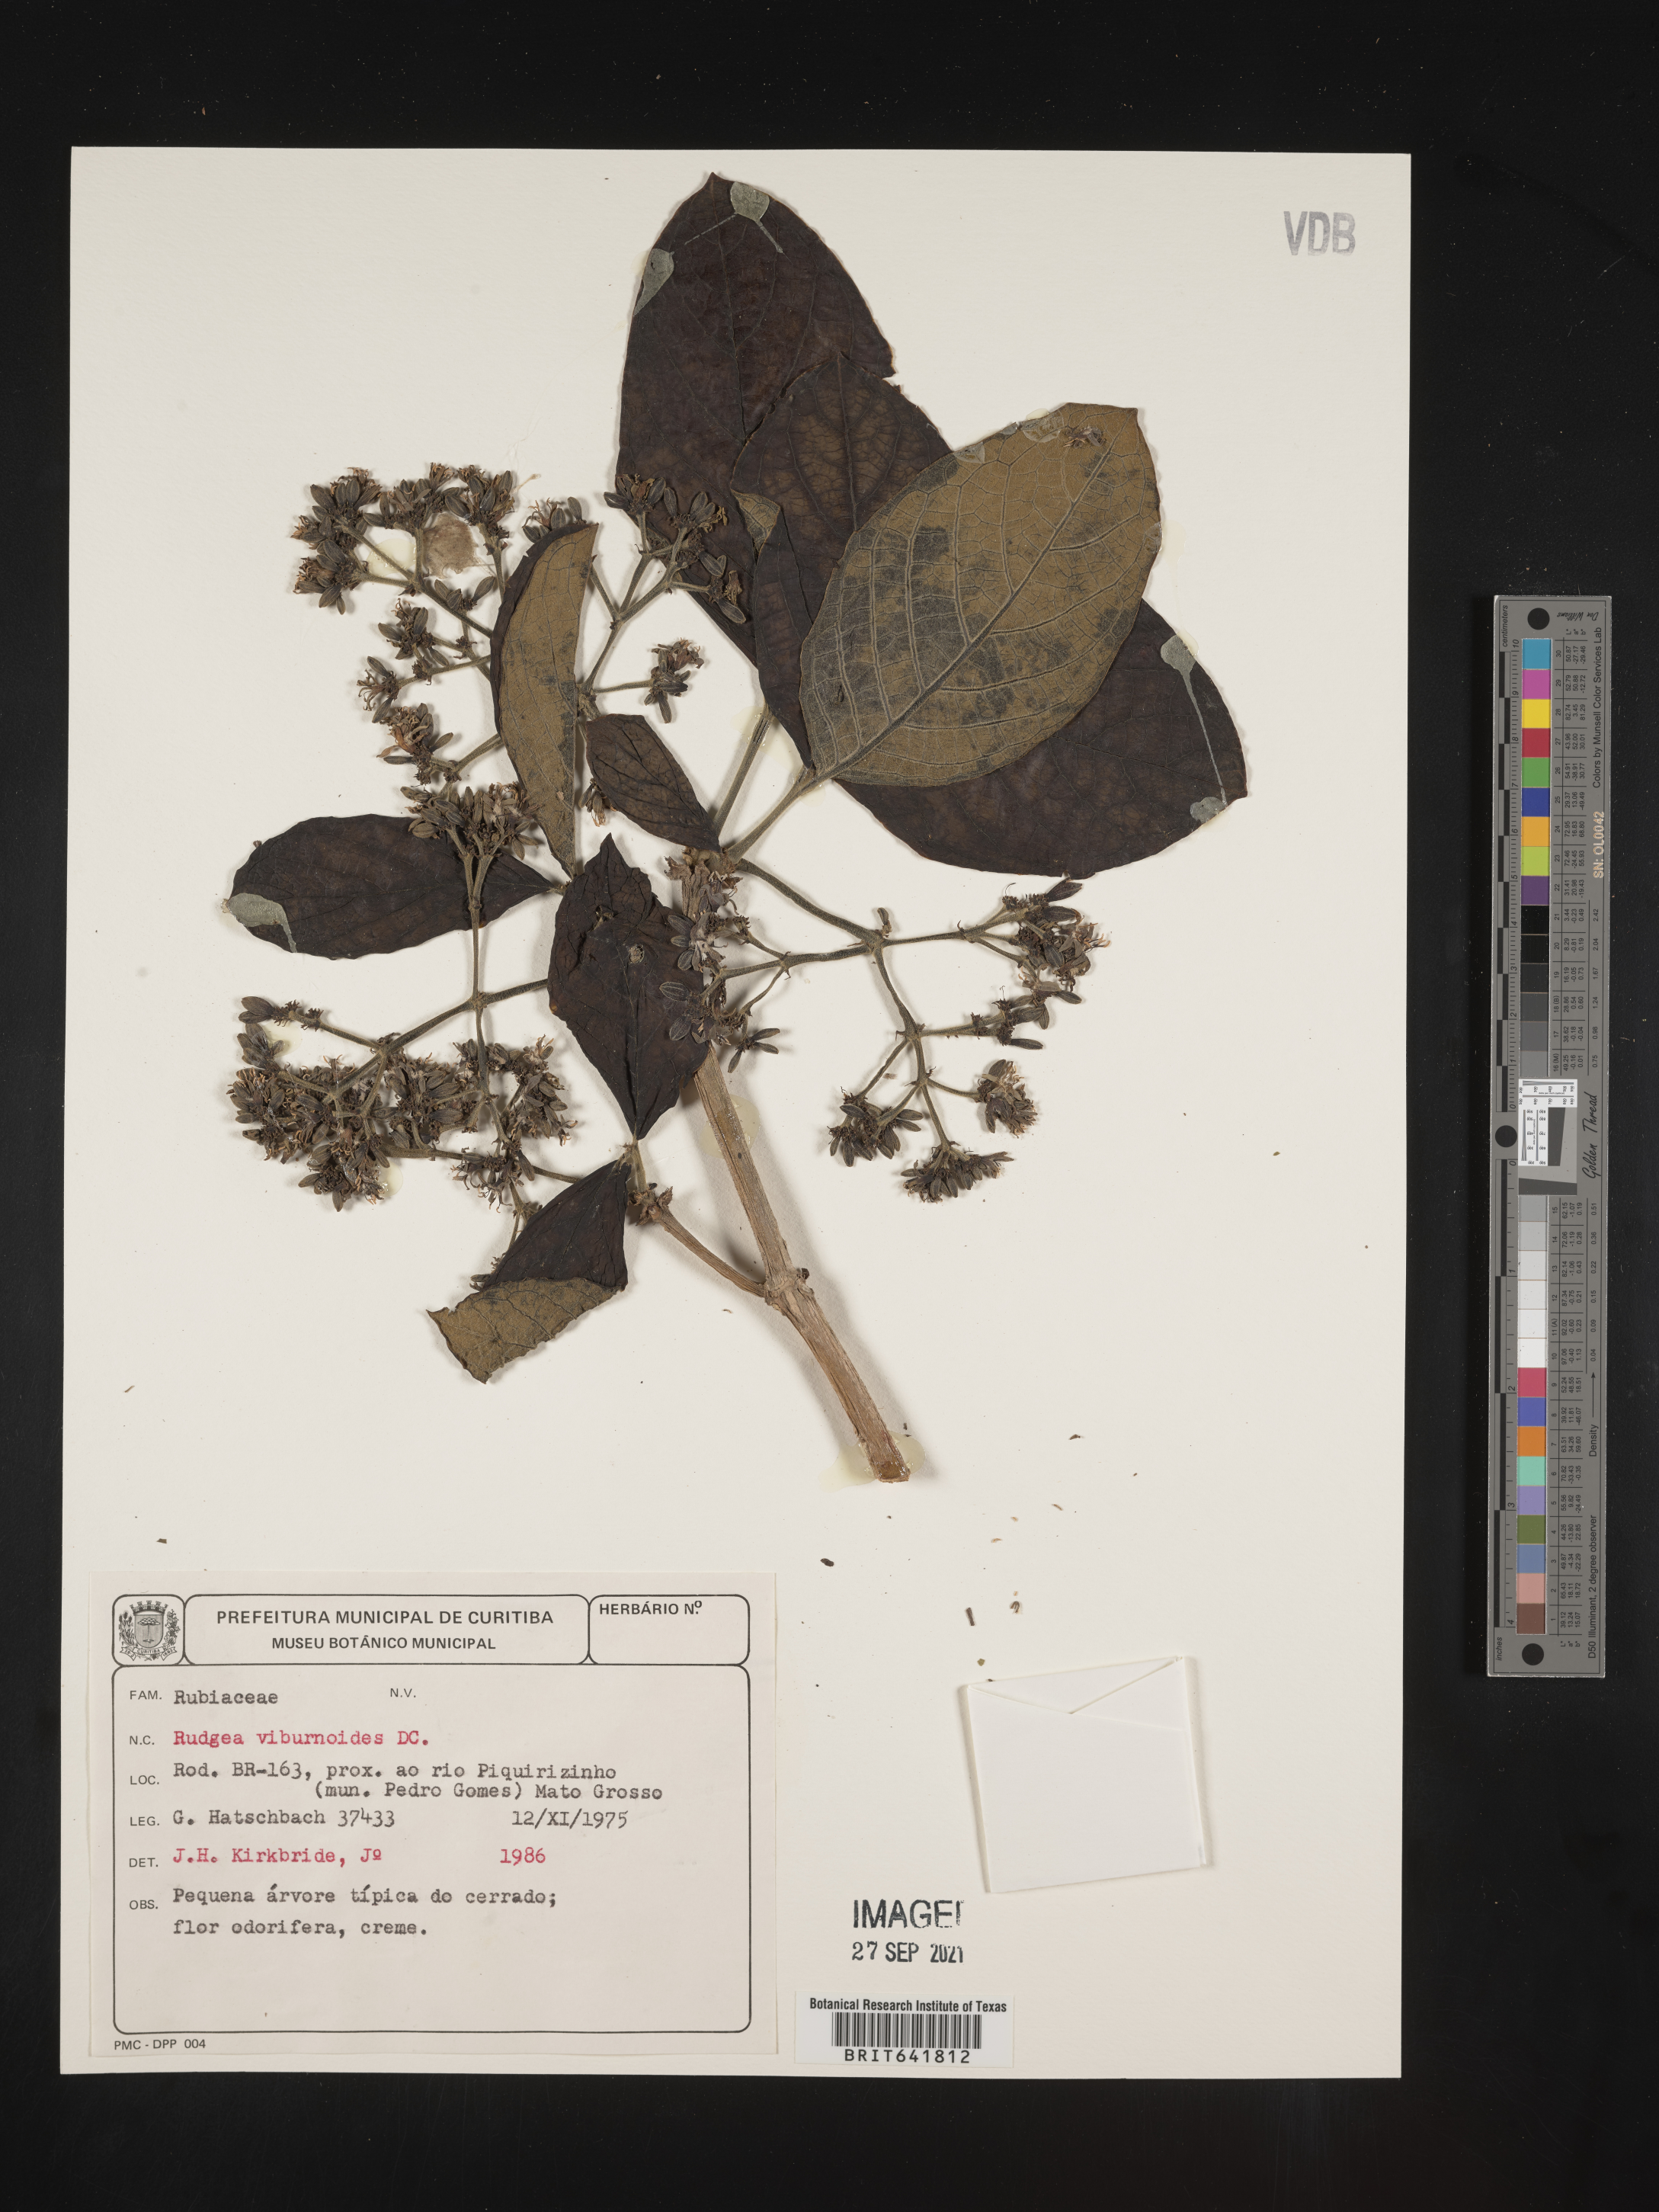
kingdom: Plantae
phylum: Tracheophyta
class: Magnoliopsida
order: Gentianales
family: Rubiaceae
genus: Rudgea
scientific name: Rudgea
